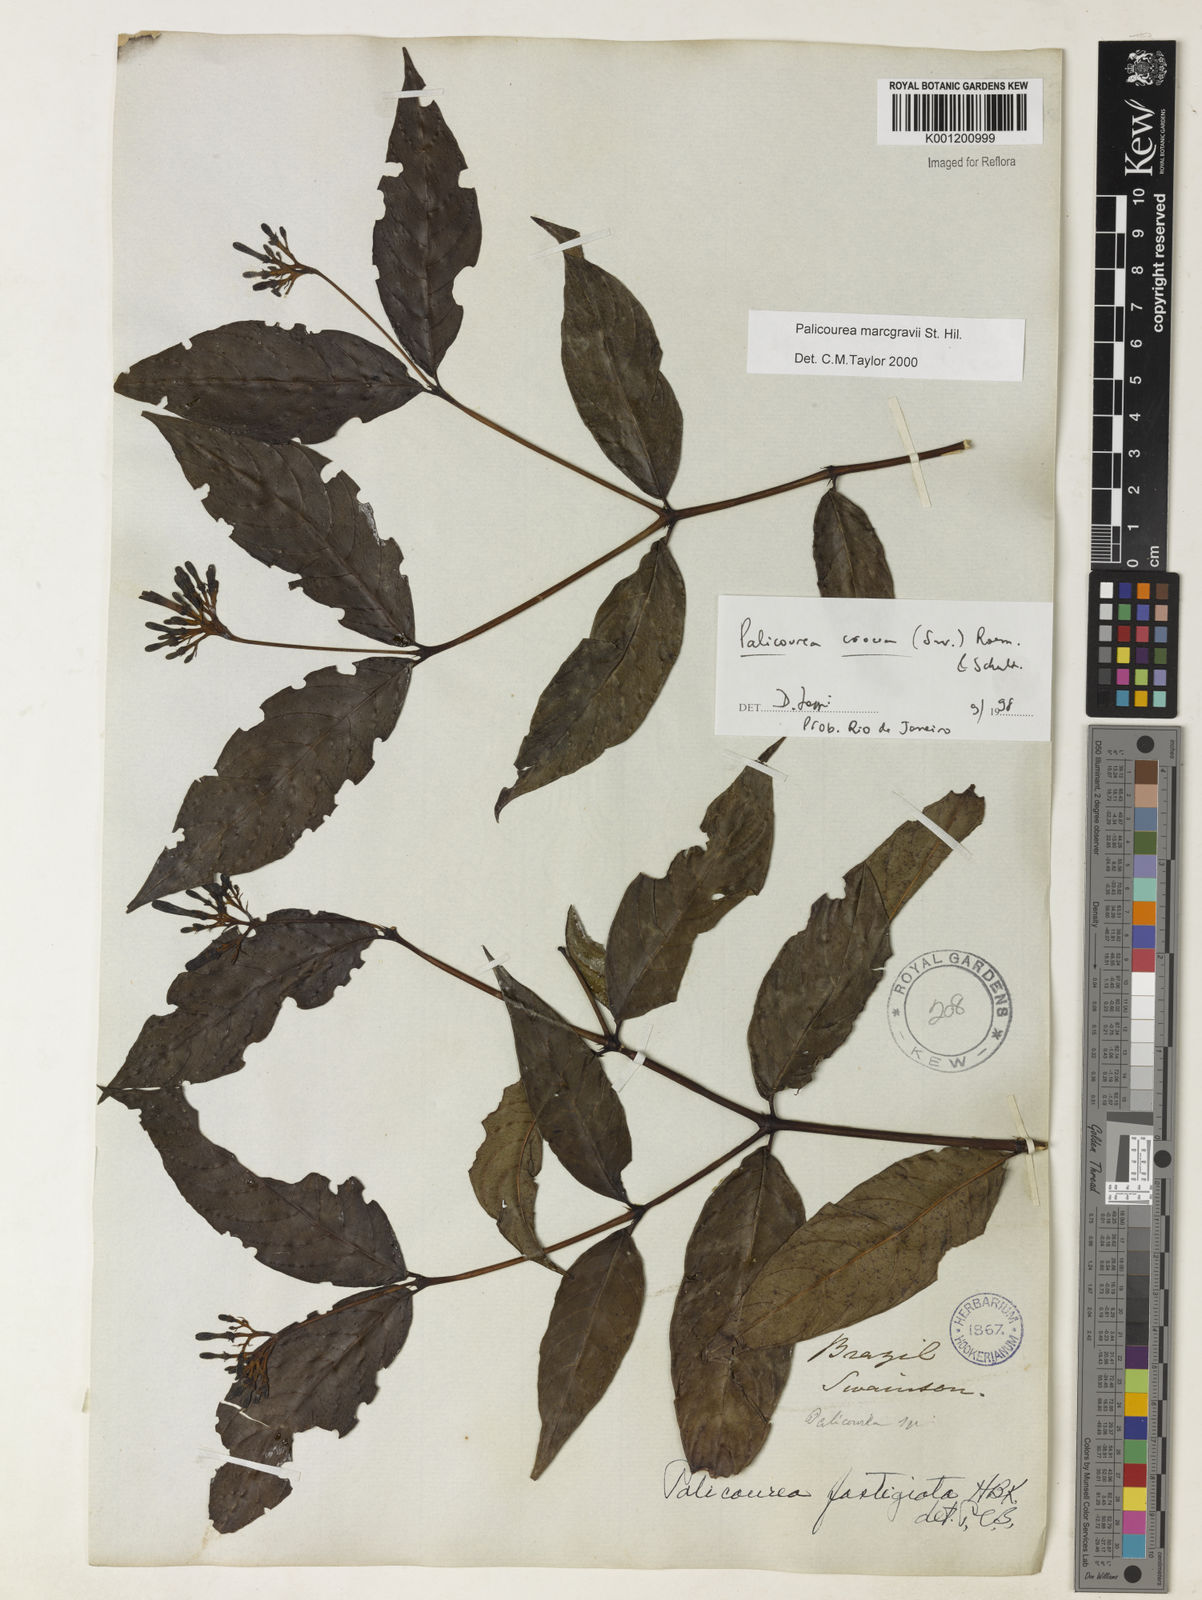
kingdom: Plantae
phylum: Tracheophyta
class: Magnoliopsida
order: Gentianales
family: Rubiaceae
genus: Palicourea
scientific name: Palicourea marcgravii
